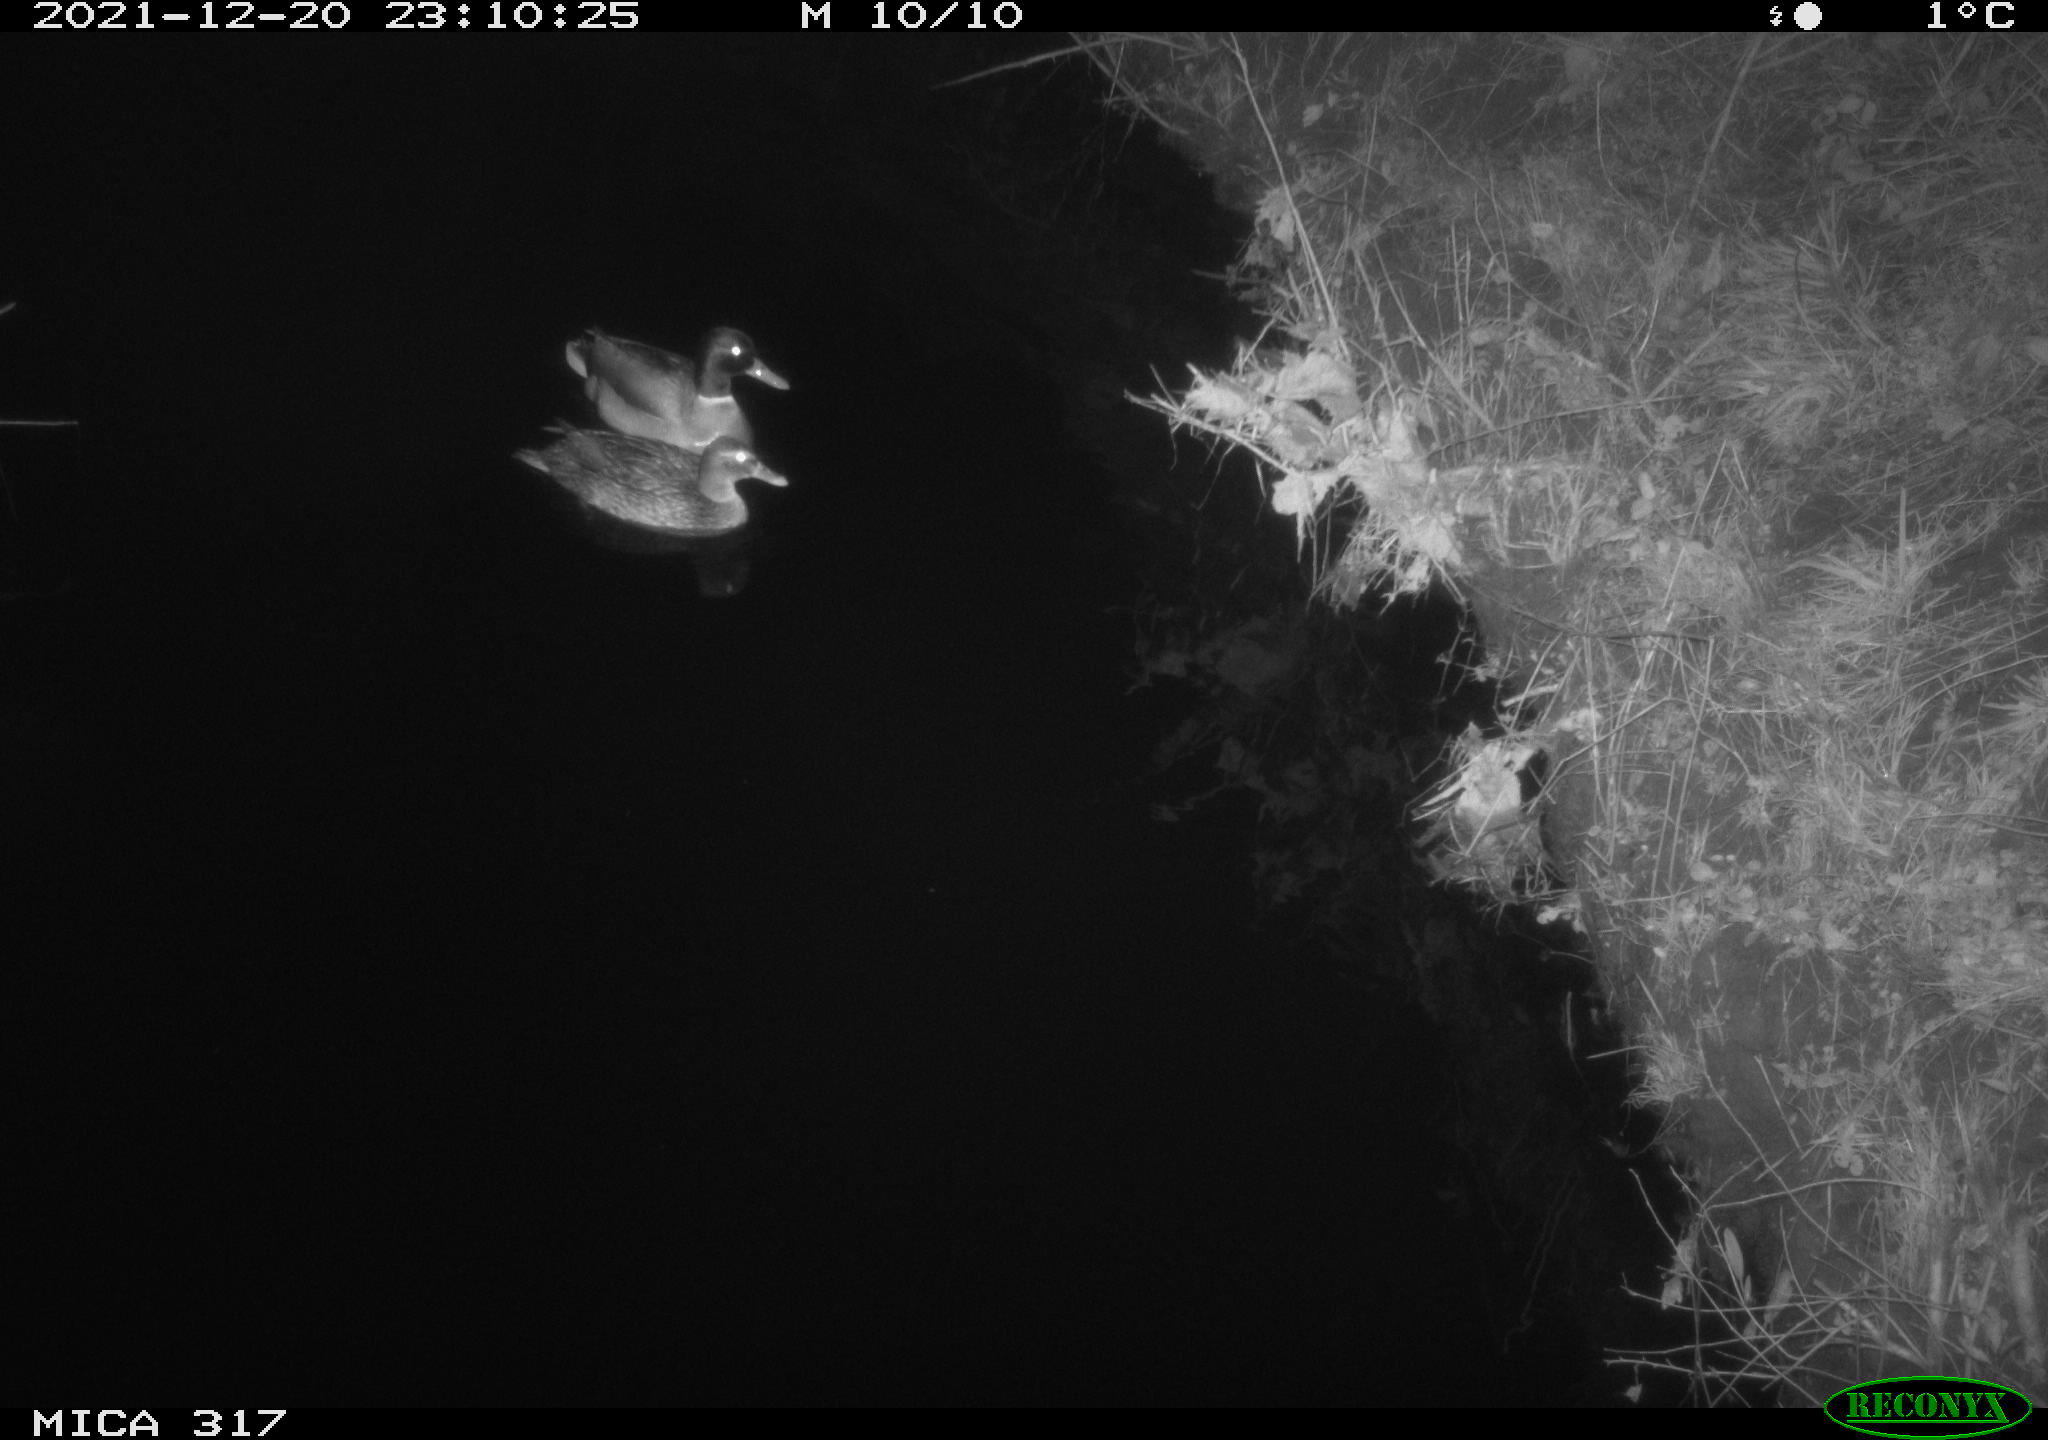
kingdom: Animalia
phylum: Chordata
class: Aves
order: Anseriformes
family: Anatidae
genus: Anas
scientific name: Anas platyrhynchos
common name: Mallard
